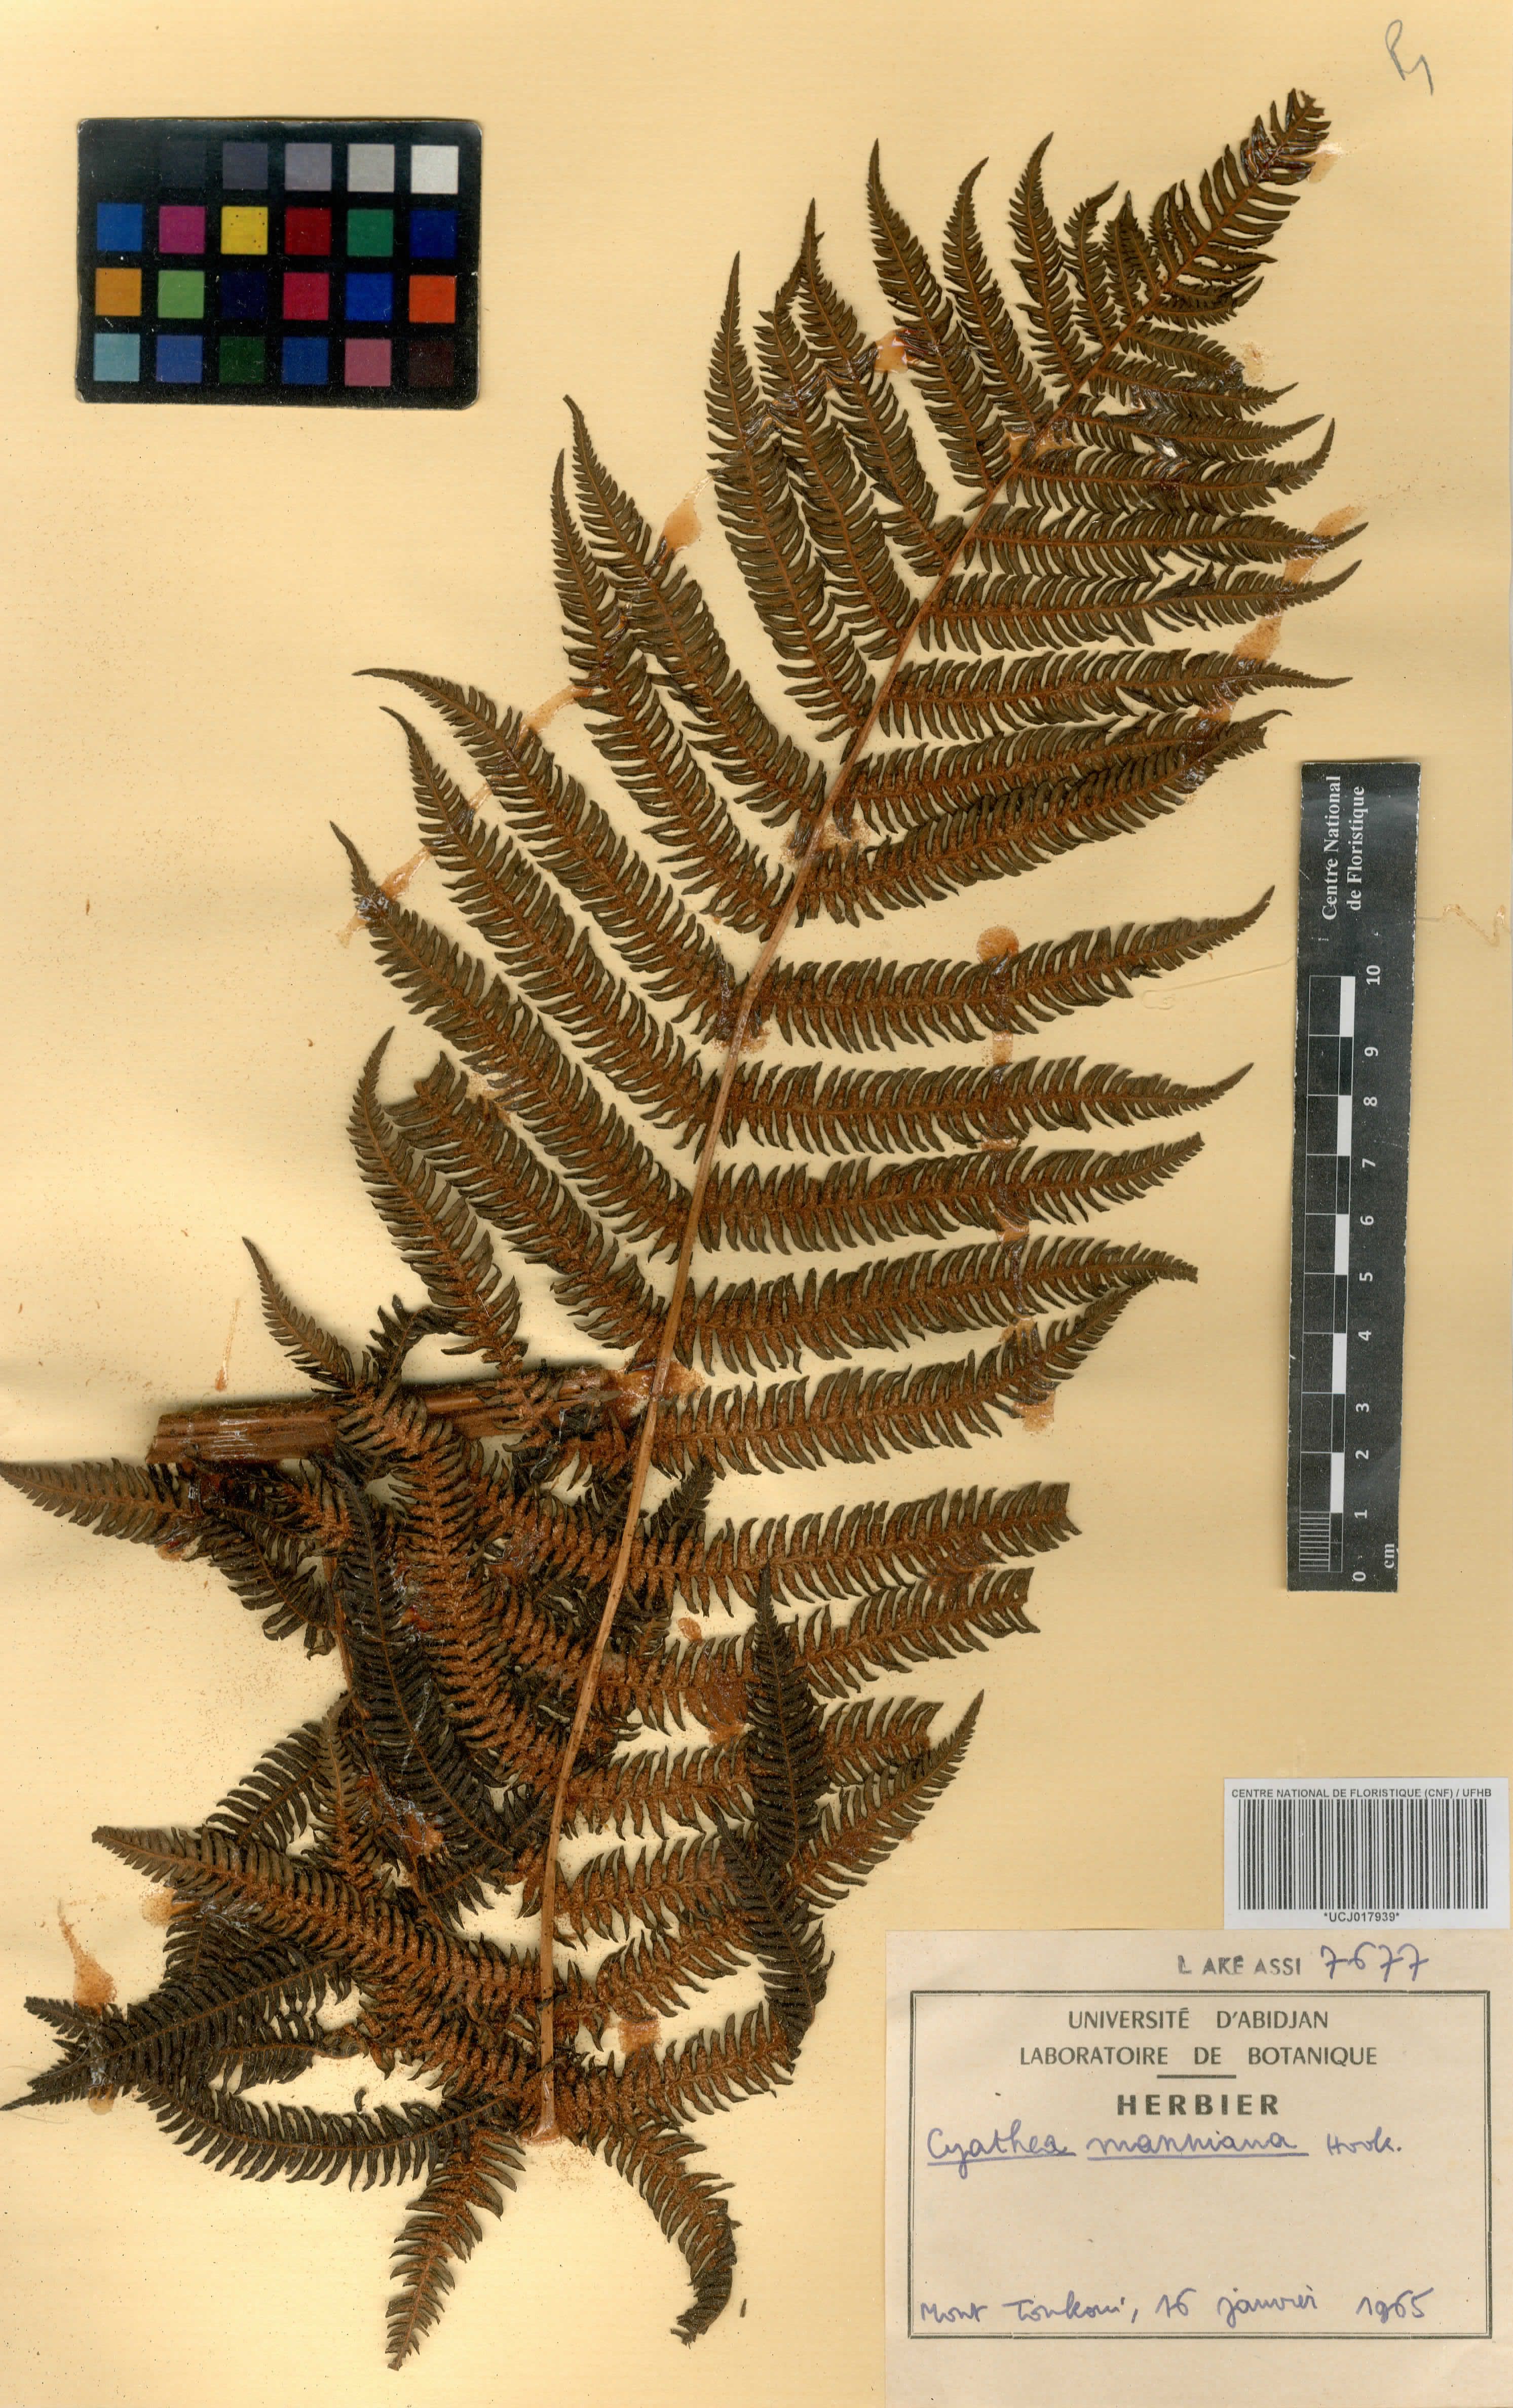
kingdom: Plantae
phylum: Tracheophyta
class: Polypodiopsida
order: Cyatheales
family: Cyatheaceae
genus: Alsophila
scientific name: Alsophila manniana
